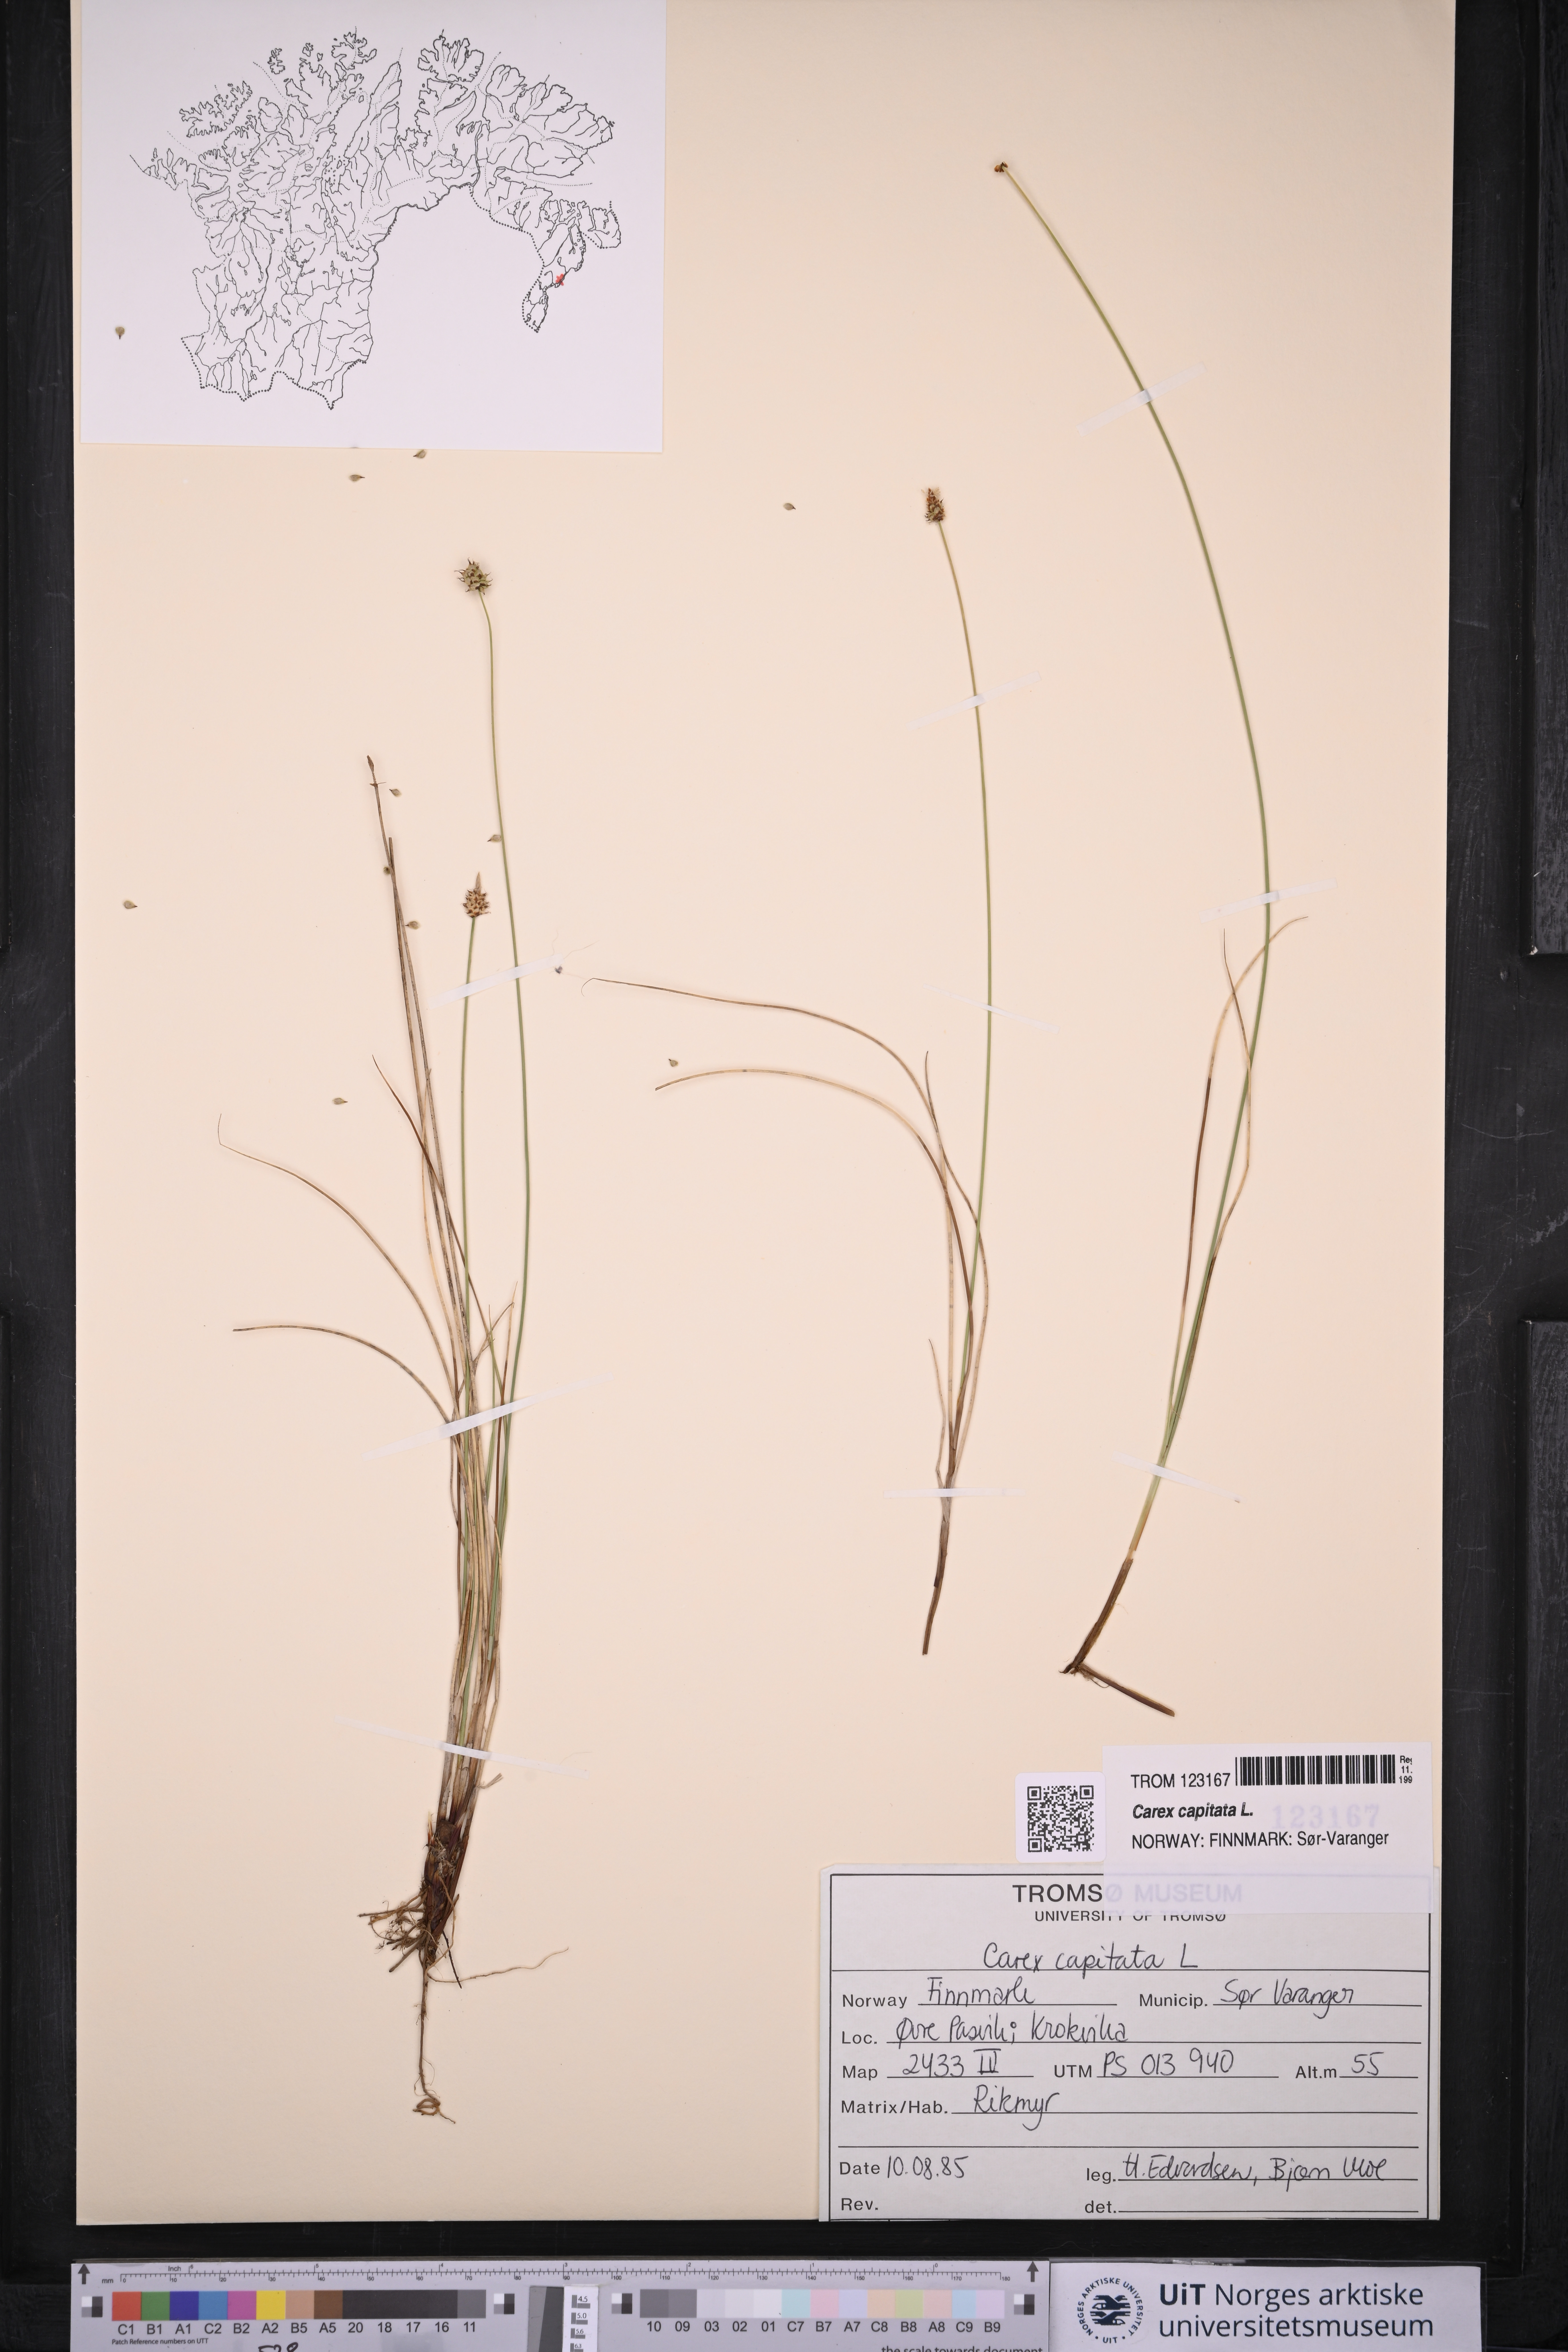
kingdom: Plantae
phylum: Tracheophyta
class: Liliopsida
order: Poales
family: Cyperaceae
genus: Carex
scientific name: Carex capitata
